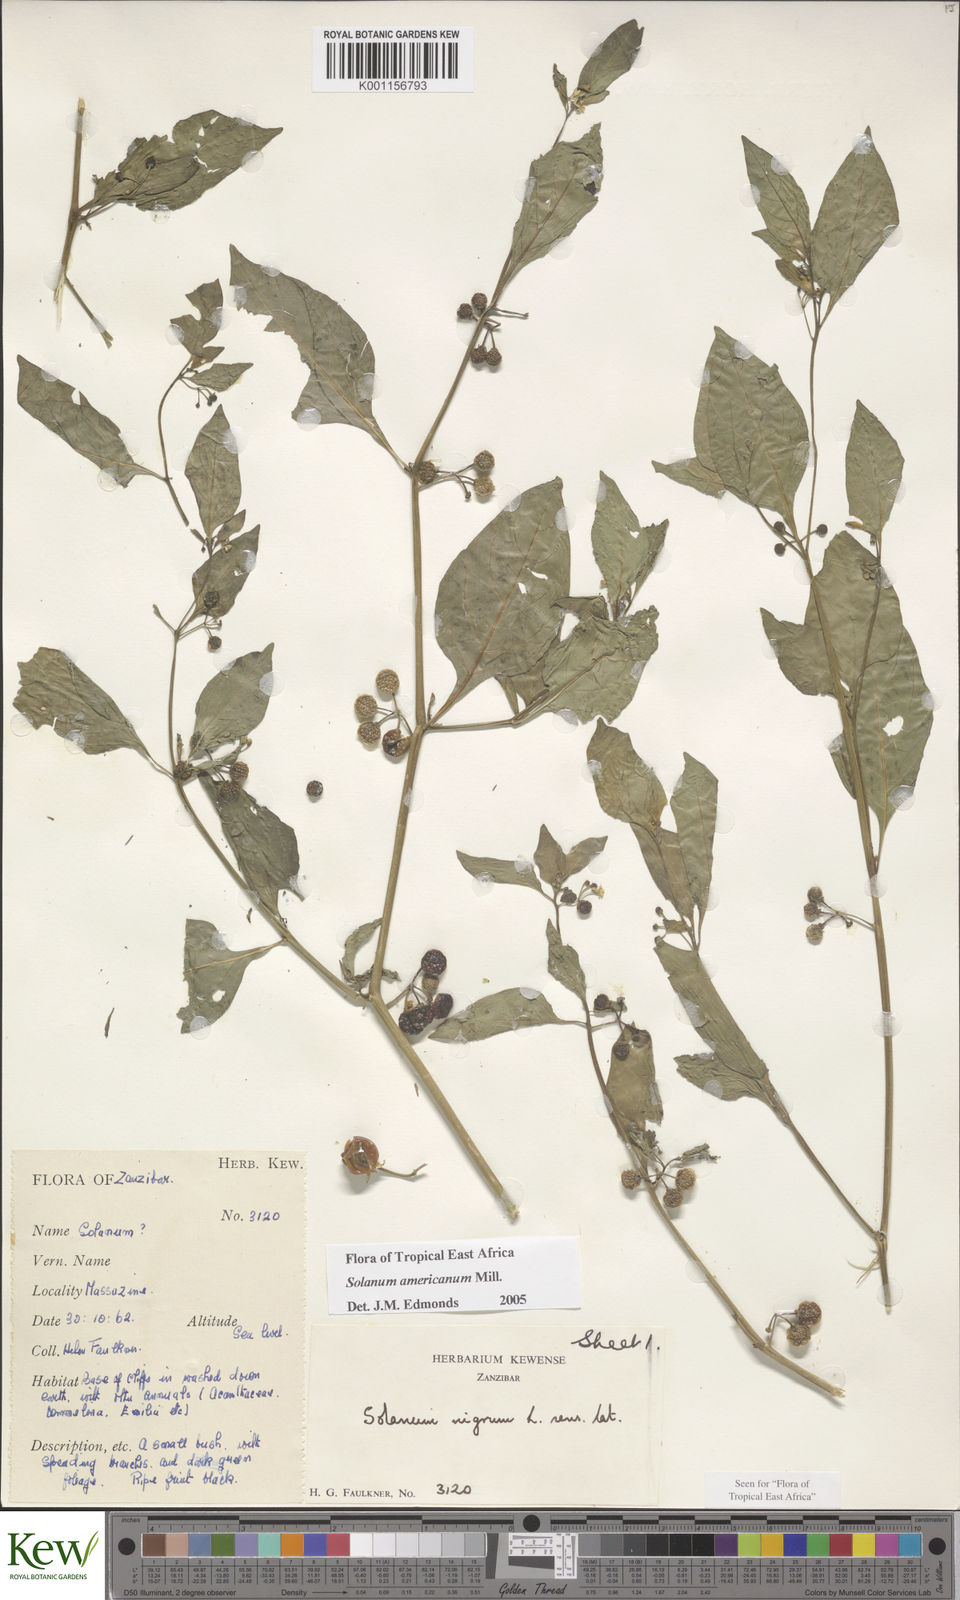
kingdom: Plantae
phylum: Tracheophyta
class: Magnoliopsida
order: Solanales
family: Solanaceae
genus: Solanum
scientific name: Solanum americanum
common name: American black nightshade
